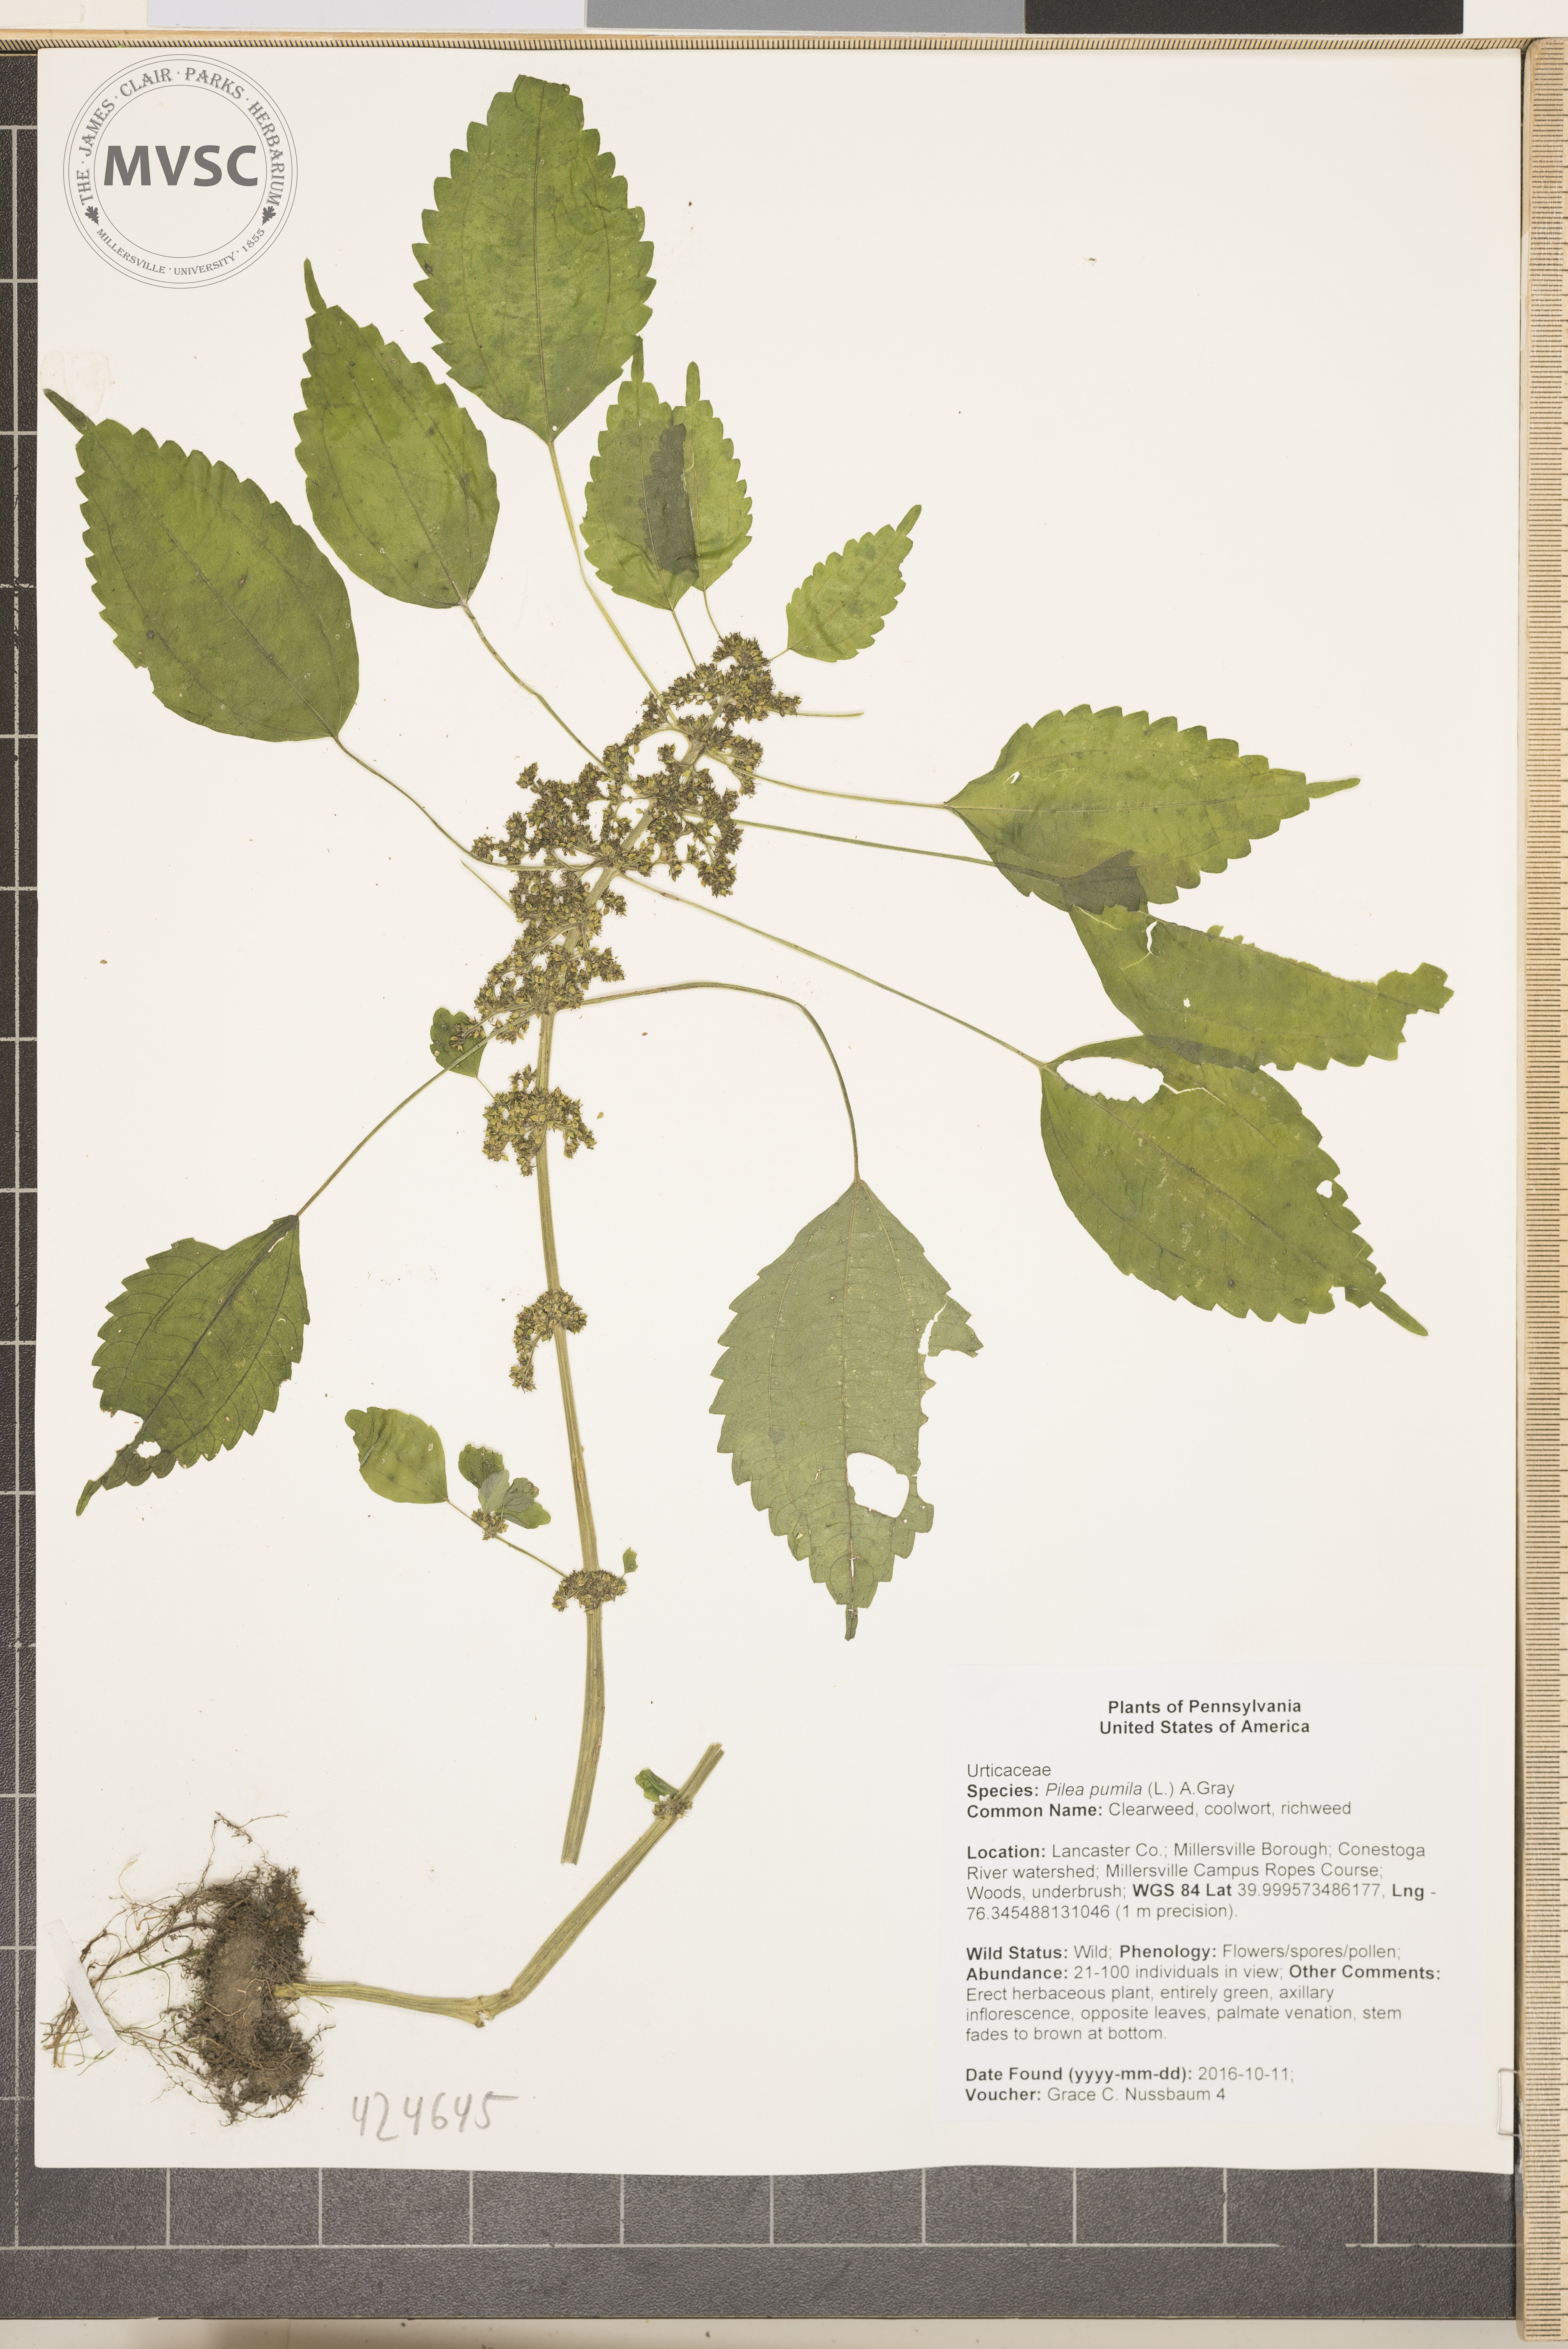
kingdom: Plantae
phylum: Tracheophyta
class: Magnoliopsida
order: Rosales
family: Urticaceae
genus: Pilea
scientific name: Pilea pumila
